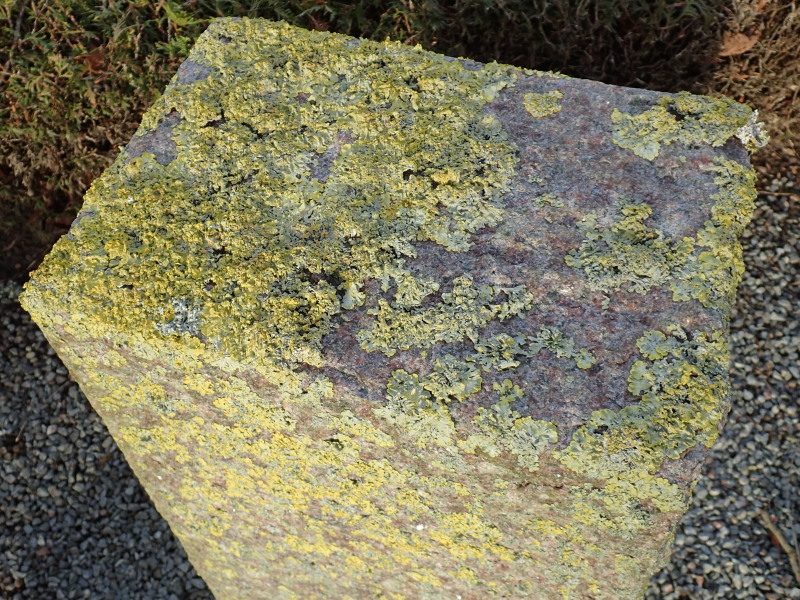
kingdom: Fungi
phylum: Ascomycota
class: Lecanoromycetes
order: Teloschistales
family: Teloschistaceae
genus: Xanthoria
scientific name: Xanthoria parietina
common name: almindelig væggelav
